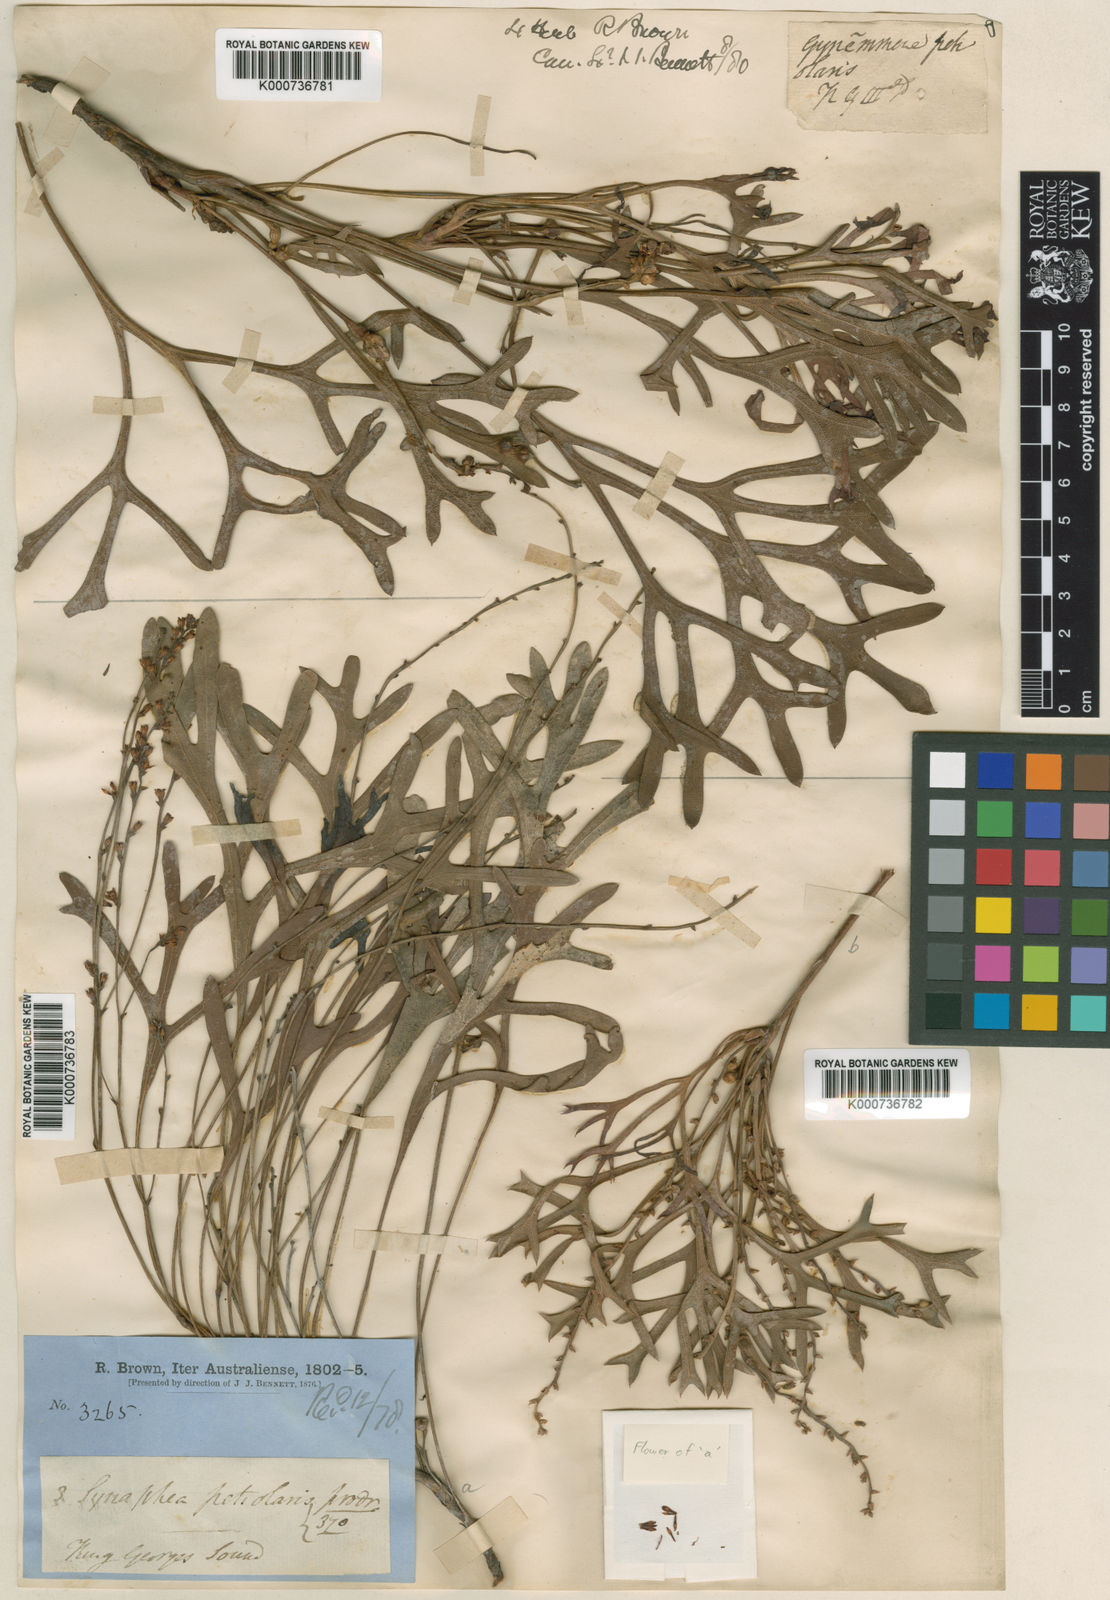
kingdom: Plantae
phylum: Tracheophyta
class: Magnoliopsida
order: Proteales
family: Proteaceae
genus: Synaphea
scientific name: Synaphea petiolaris
